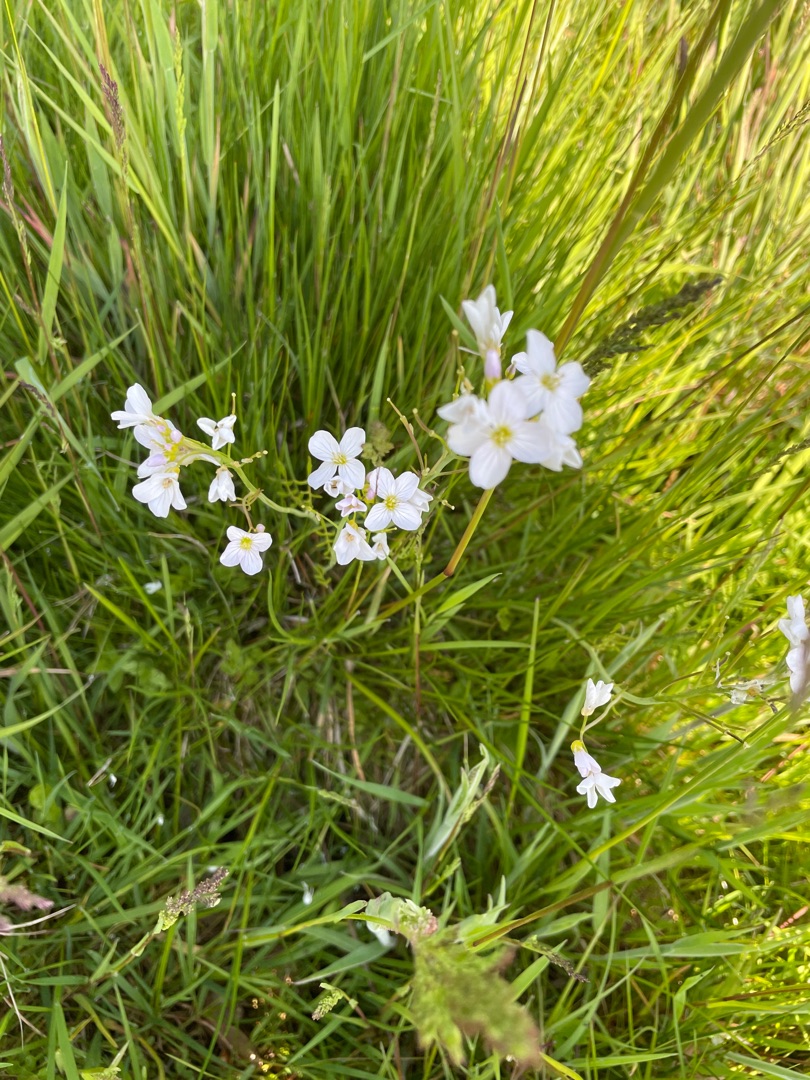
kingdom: Plantae
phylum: Tracheophyta
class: Magnoliopsida
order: Brassicales
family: Brassicaceae
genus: Cardamine
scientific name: Cardamine pratensis
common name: Engkarse
